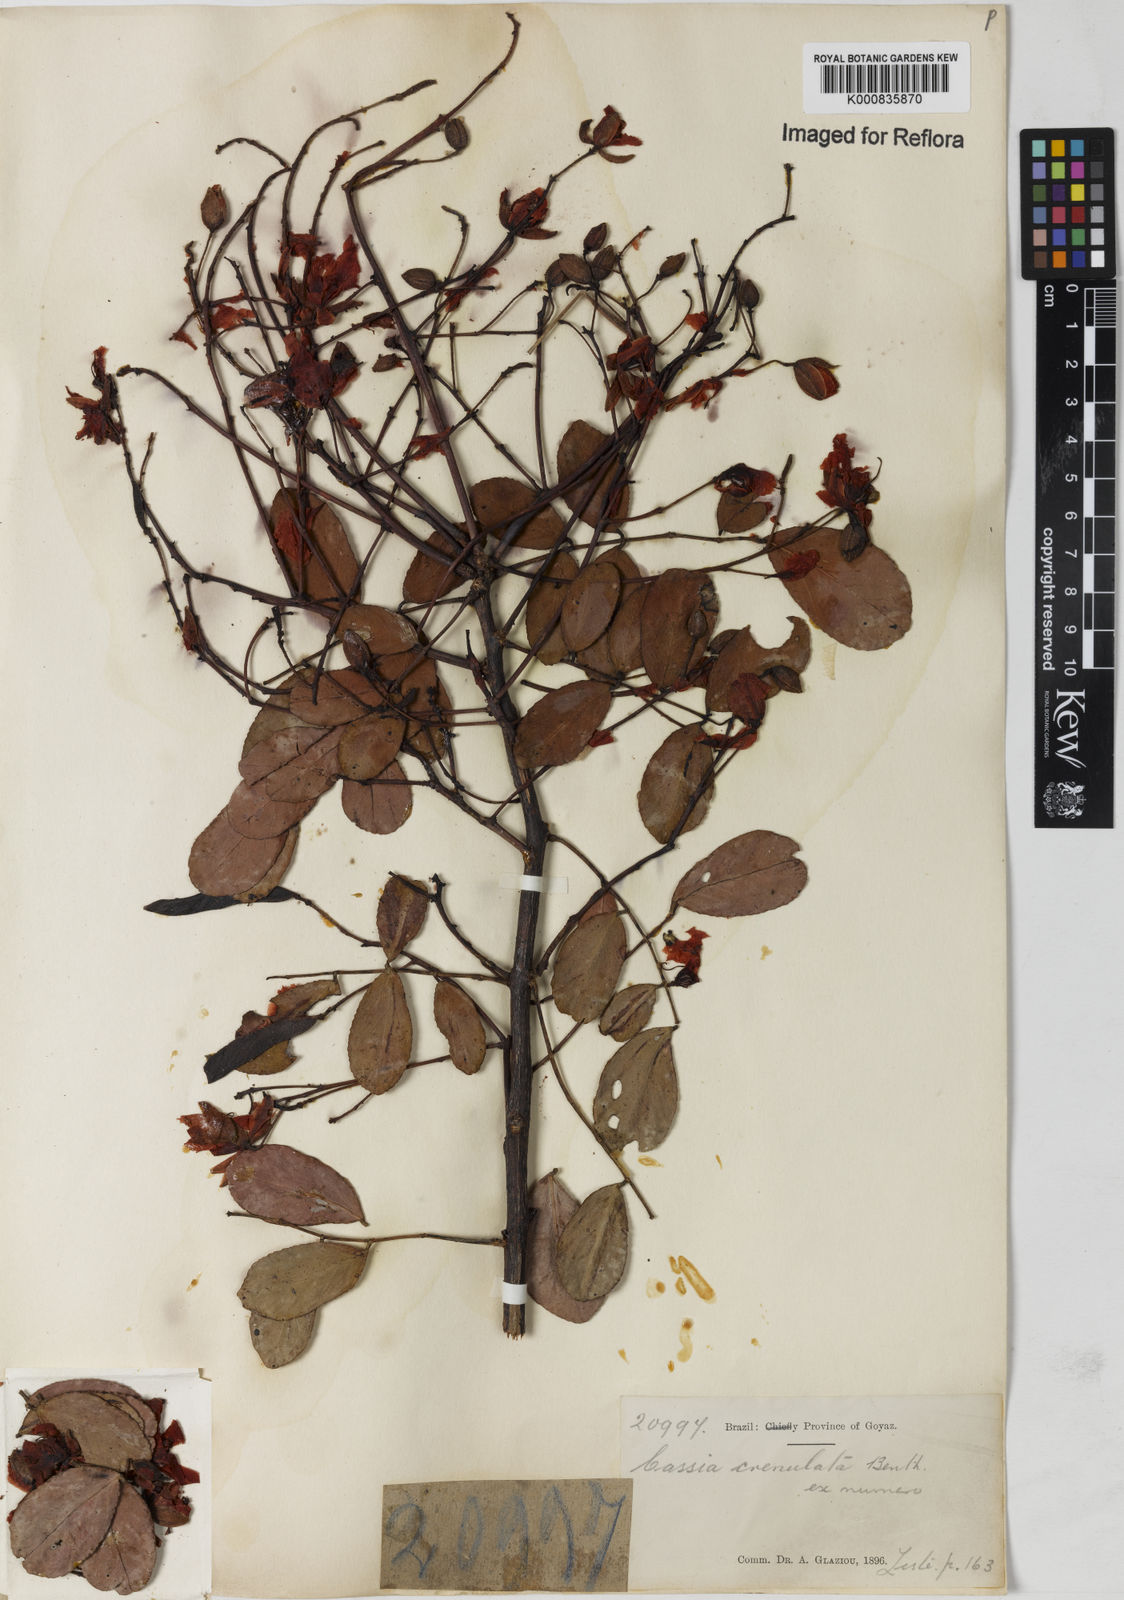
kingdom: Plantae
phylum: Tracheophyta
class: Magnoliopsida
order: Fabales
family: Fabaceae
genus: Chamaecrista
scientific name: Chamaecrista crenulata
